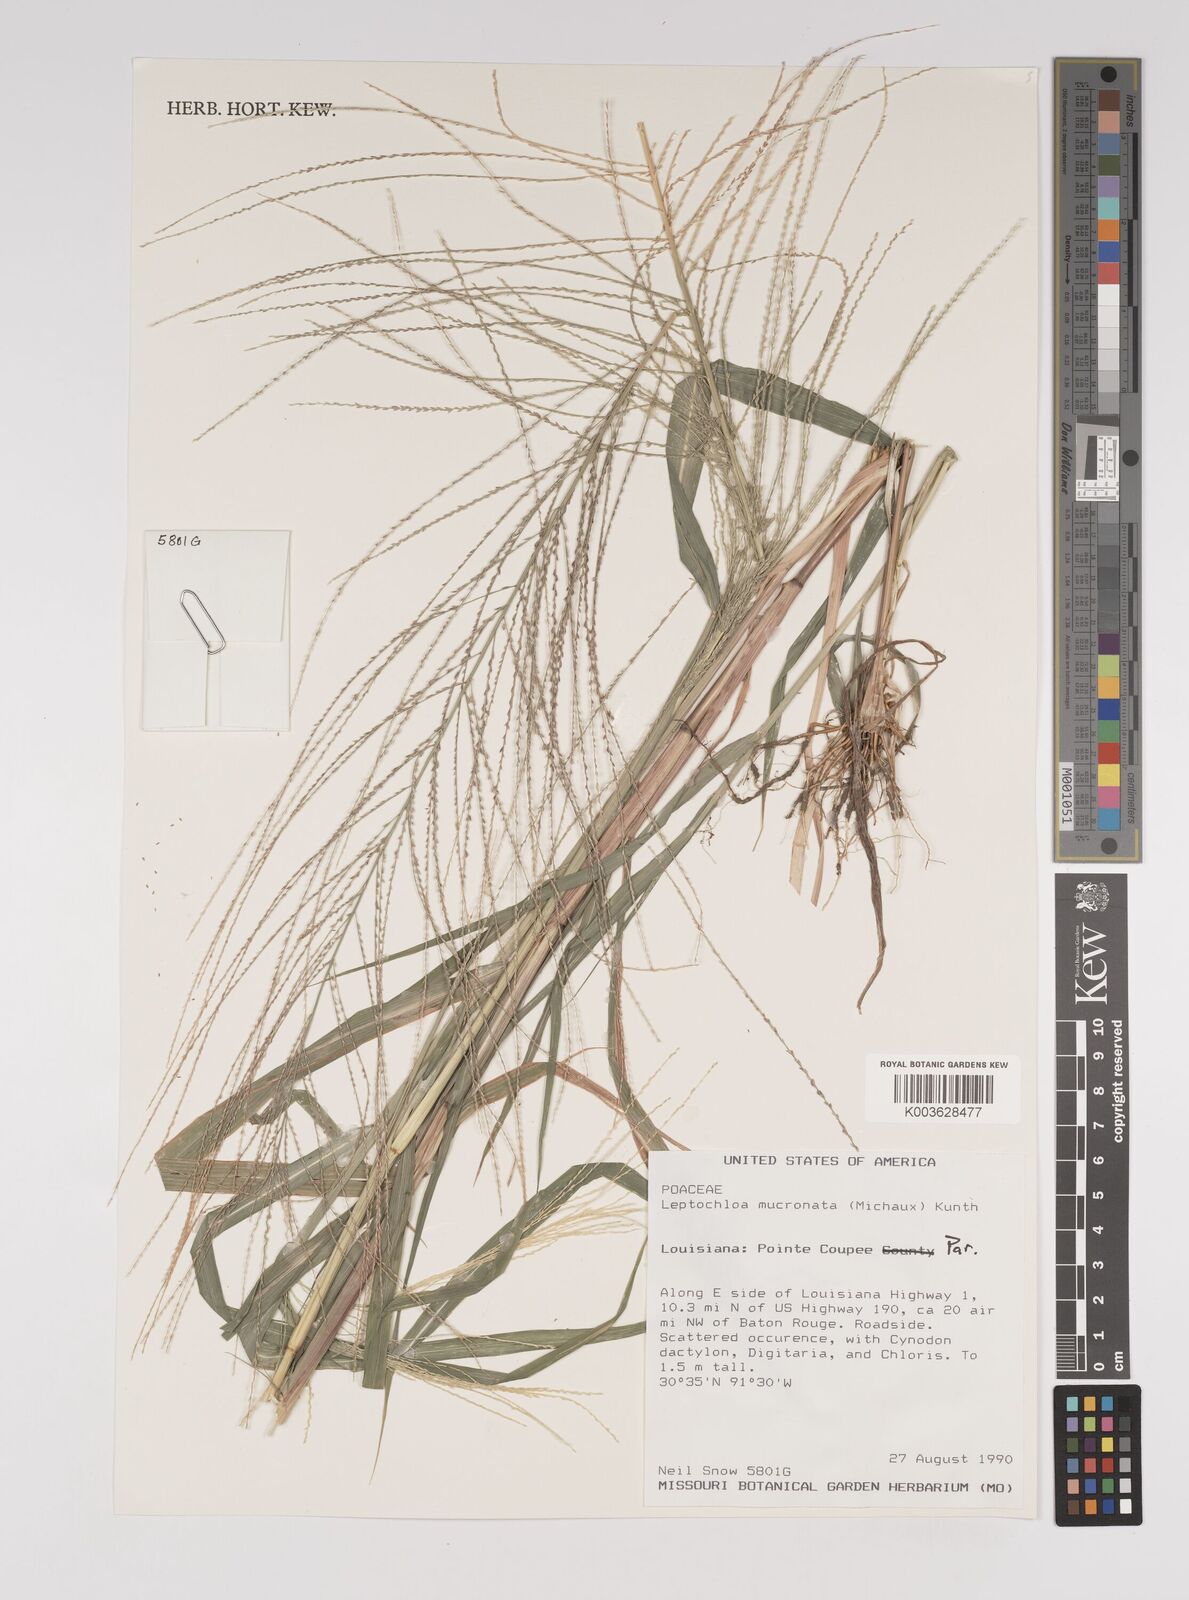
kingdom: Plantae
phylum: Tracheophyta
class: Liliopsida
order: Poales
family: Poaceae
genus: Leptochloa
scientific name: Leptochloa panicea
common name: Mucronate sprangletop
